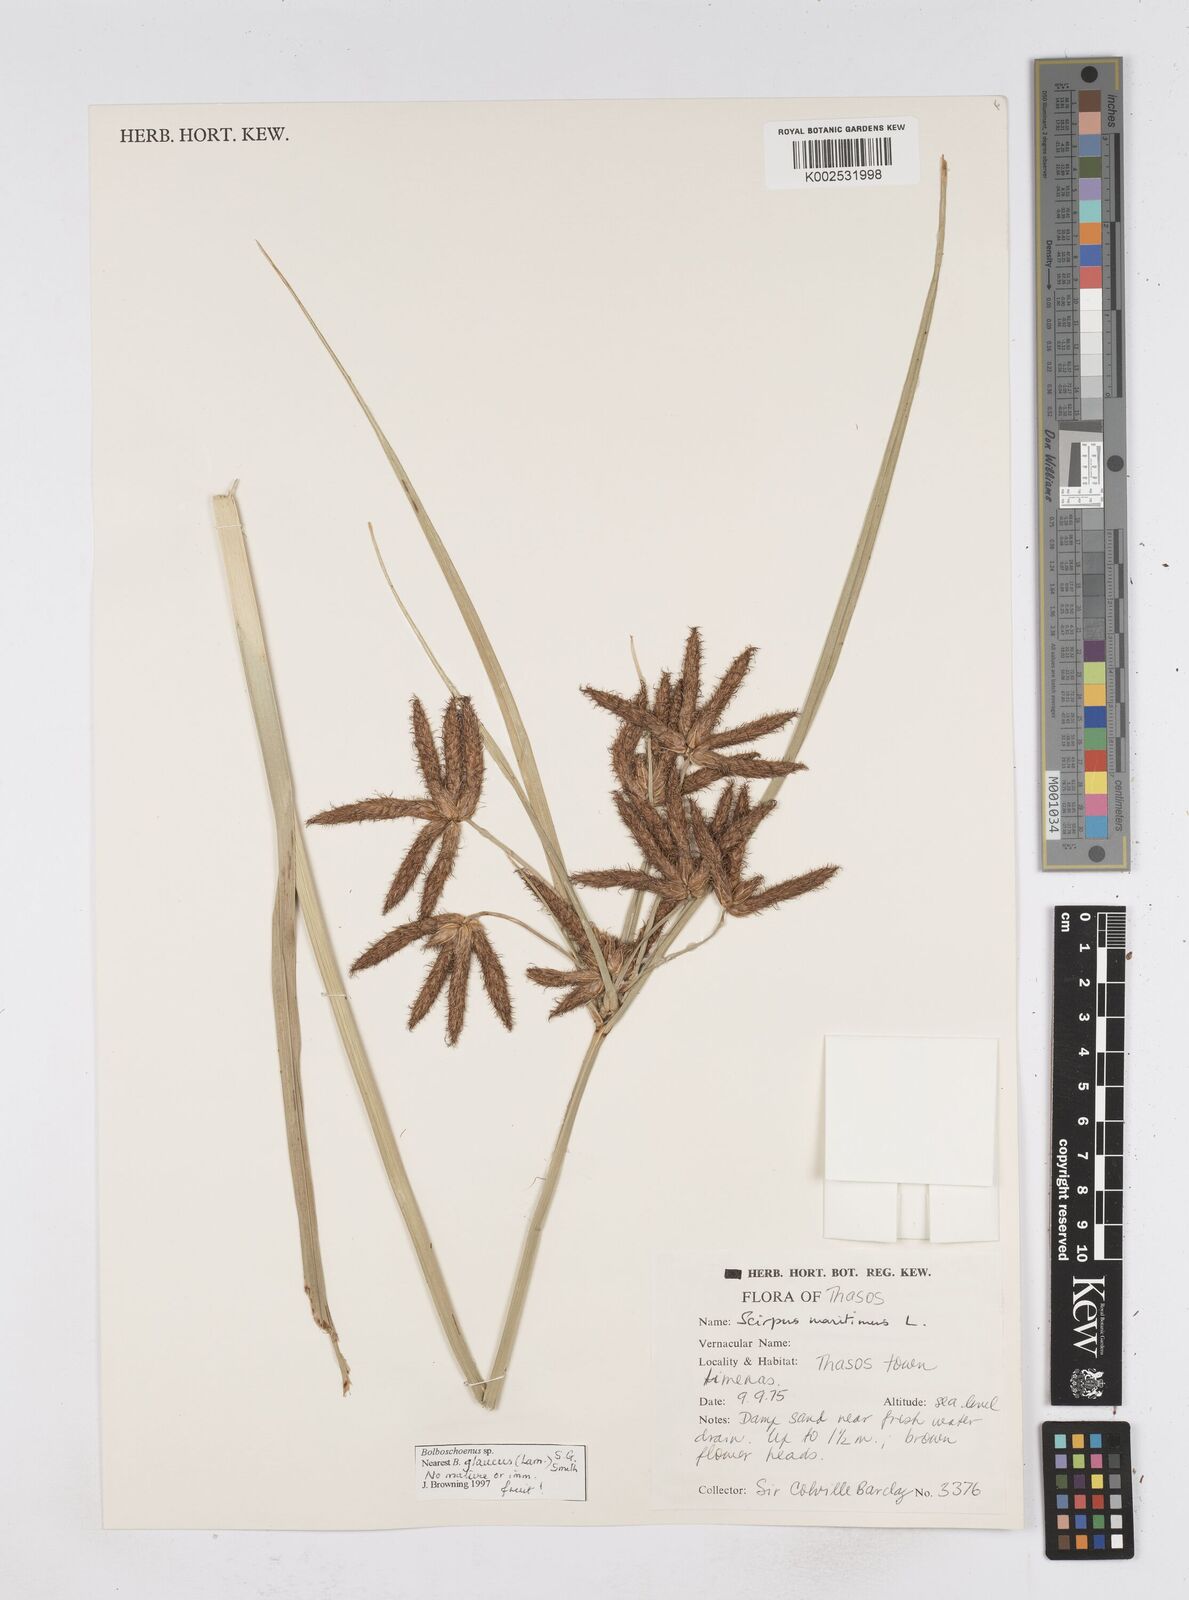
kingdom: Plantae
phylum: Tracheophyta
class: Liliopsida
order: Poales
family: Cyperaceae
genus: Bolboschoenus
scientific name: Bolboschoenus maritimus
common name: Sea club-rush
